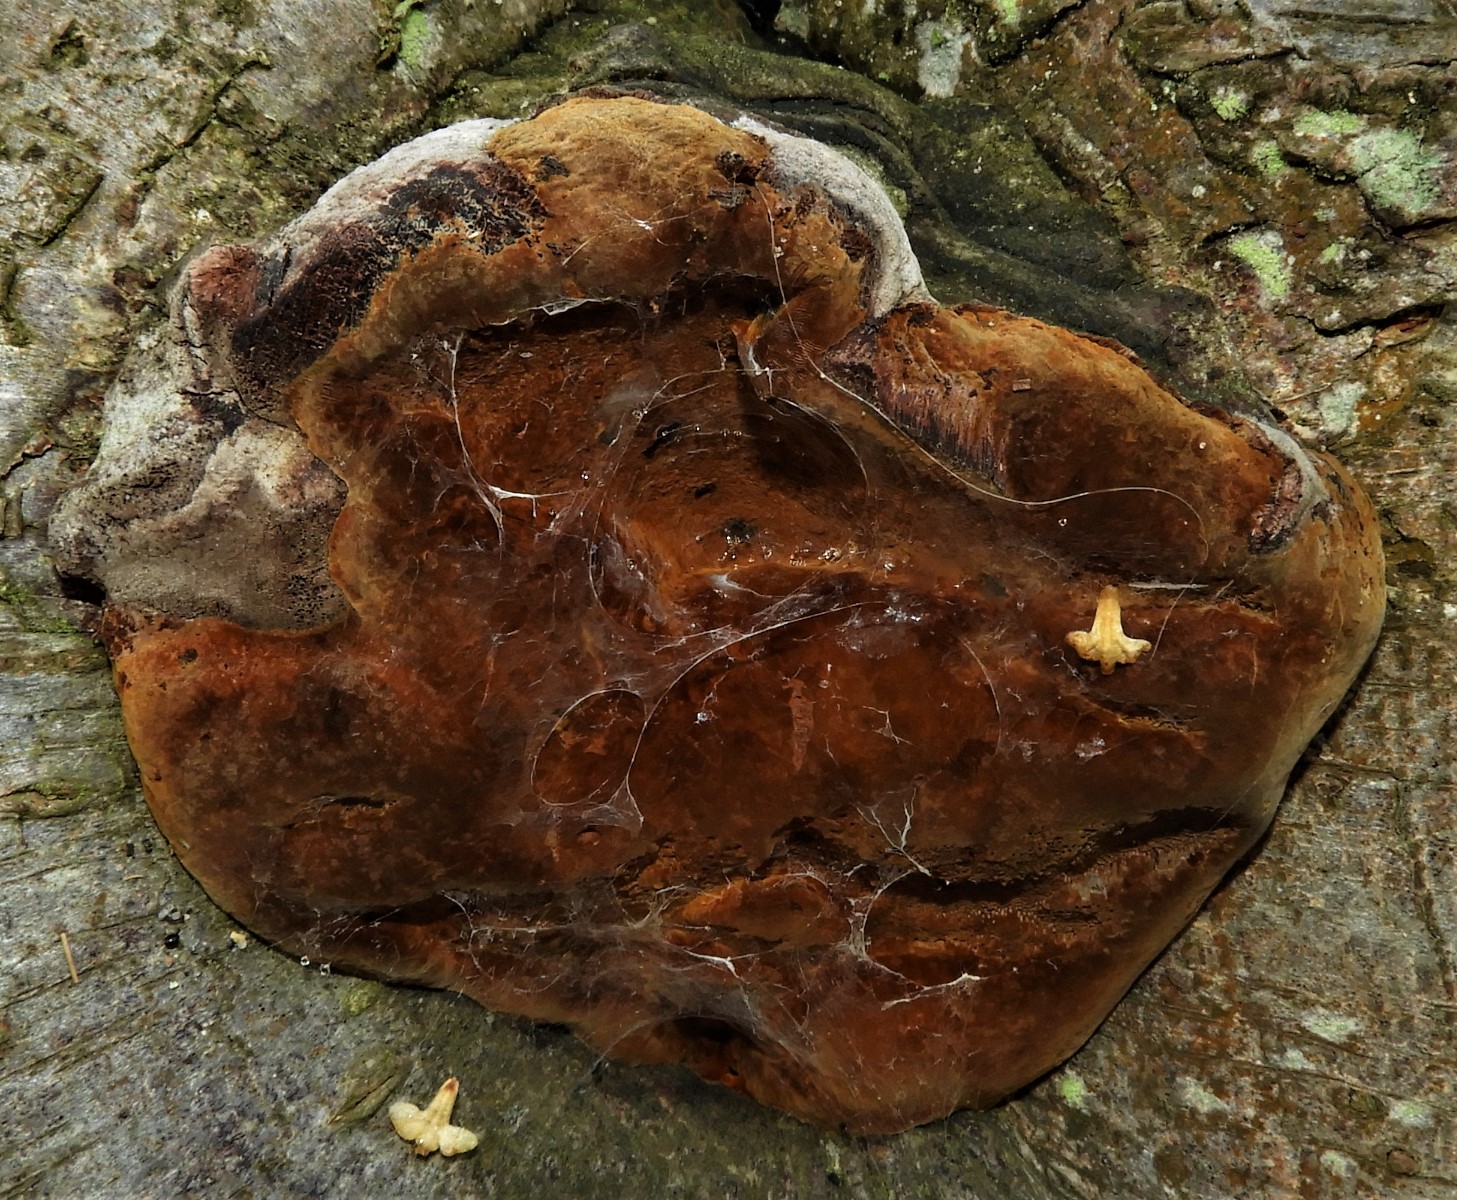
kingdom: Fungi
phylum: Basidiomycota
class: Agaricomycetes
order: Hymenochaetales
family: Hymenochaetaceae
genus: Phellinus
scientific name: Phellinus pomaceus
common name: blomme-ildporesvamp
